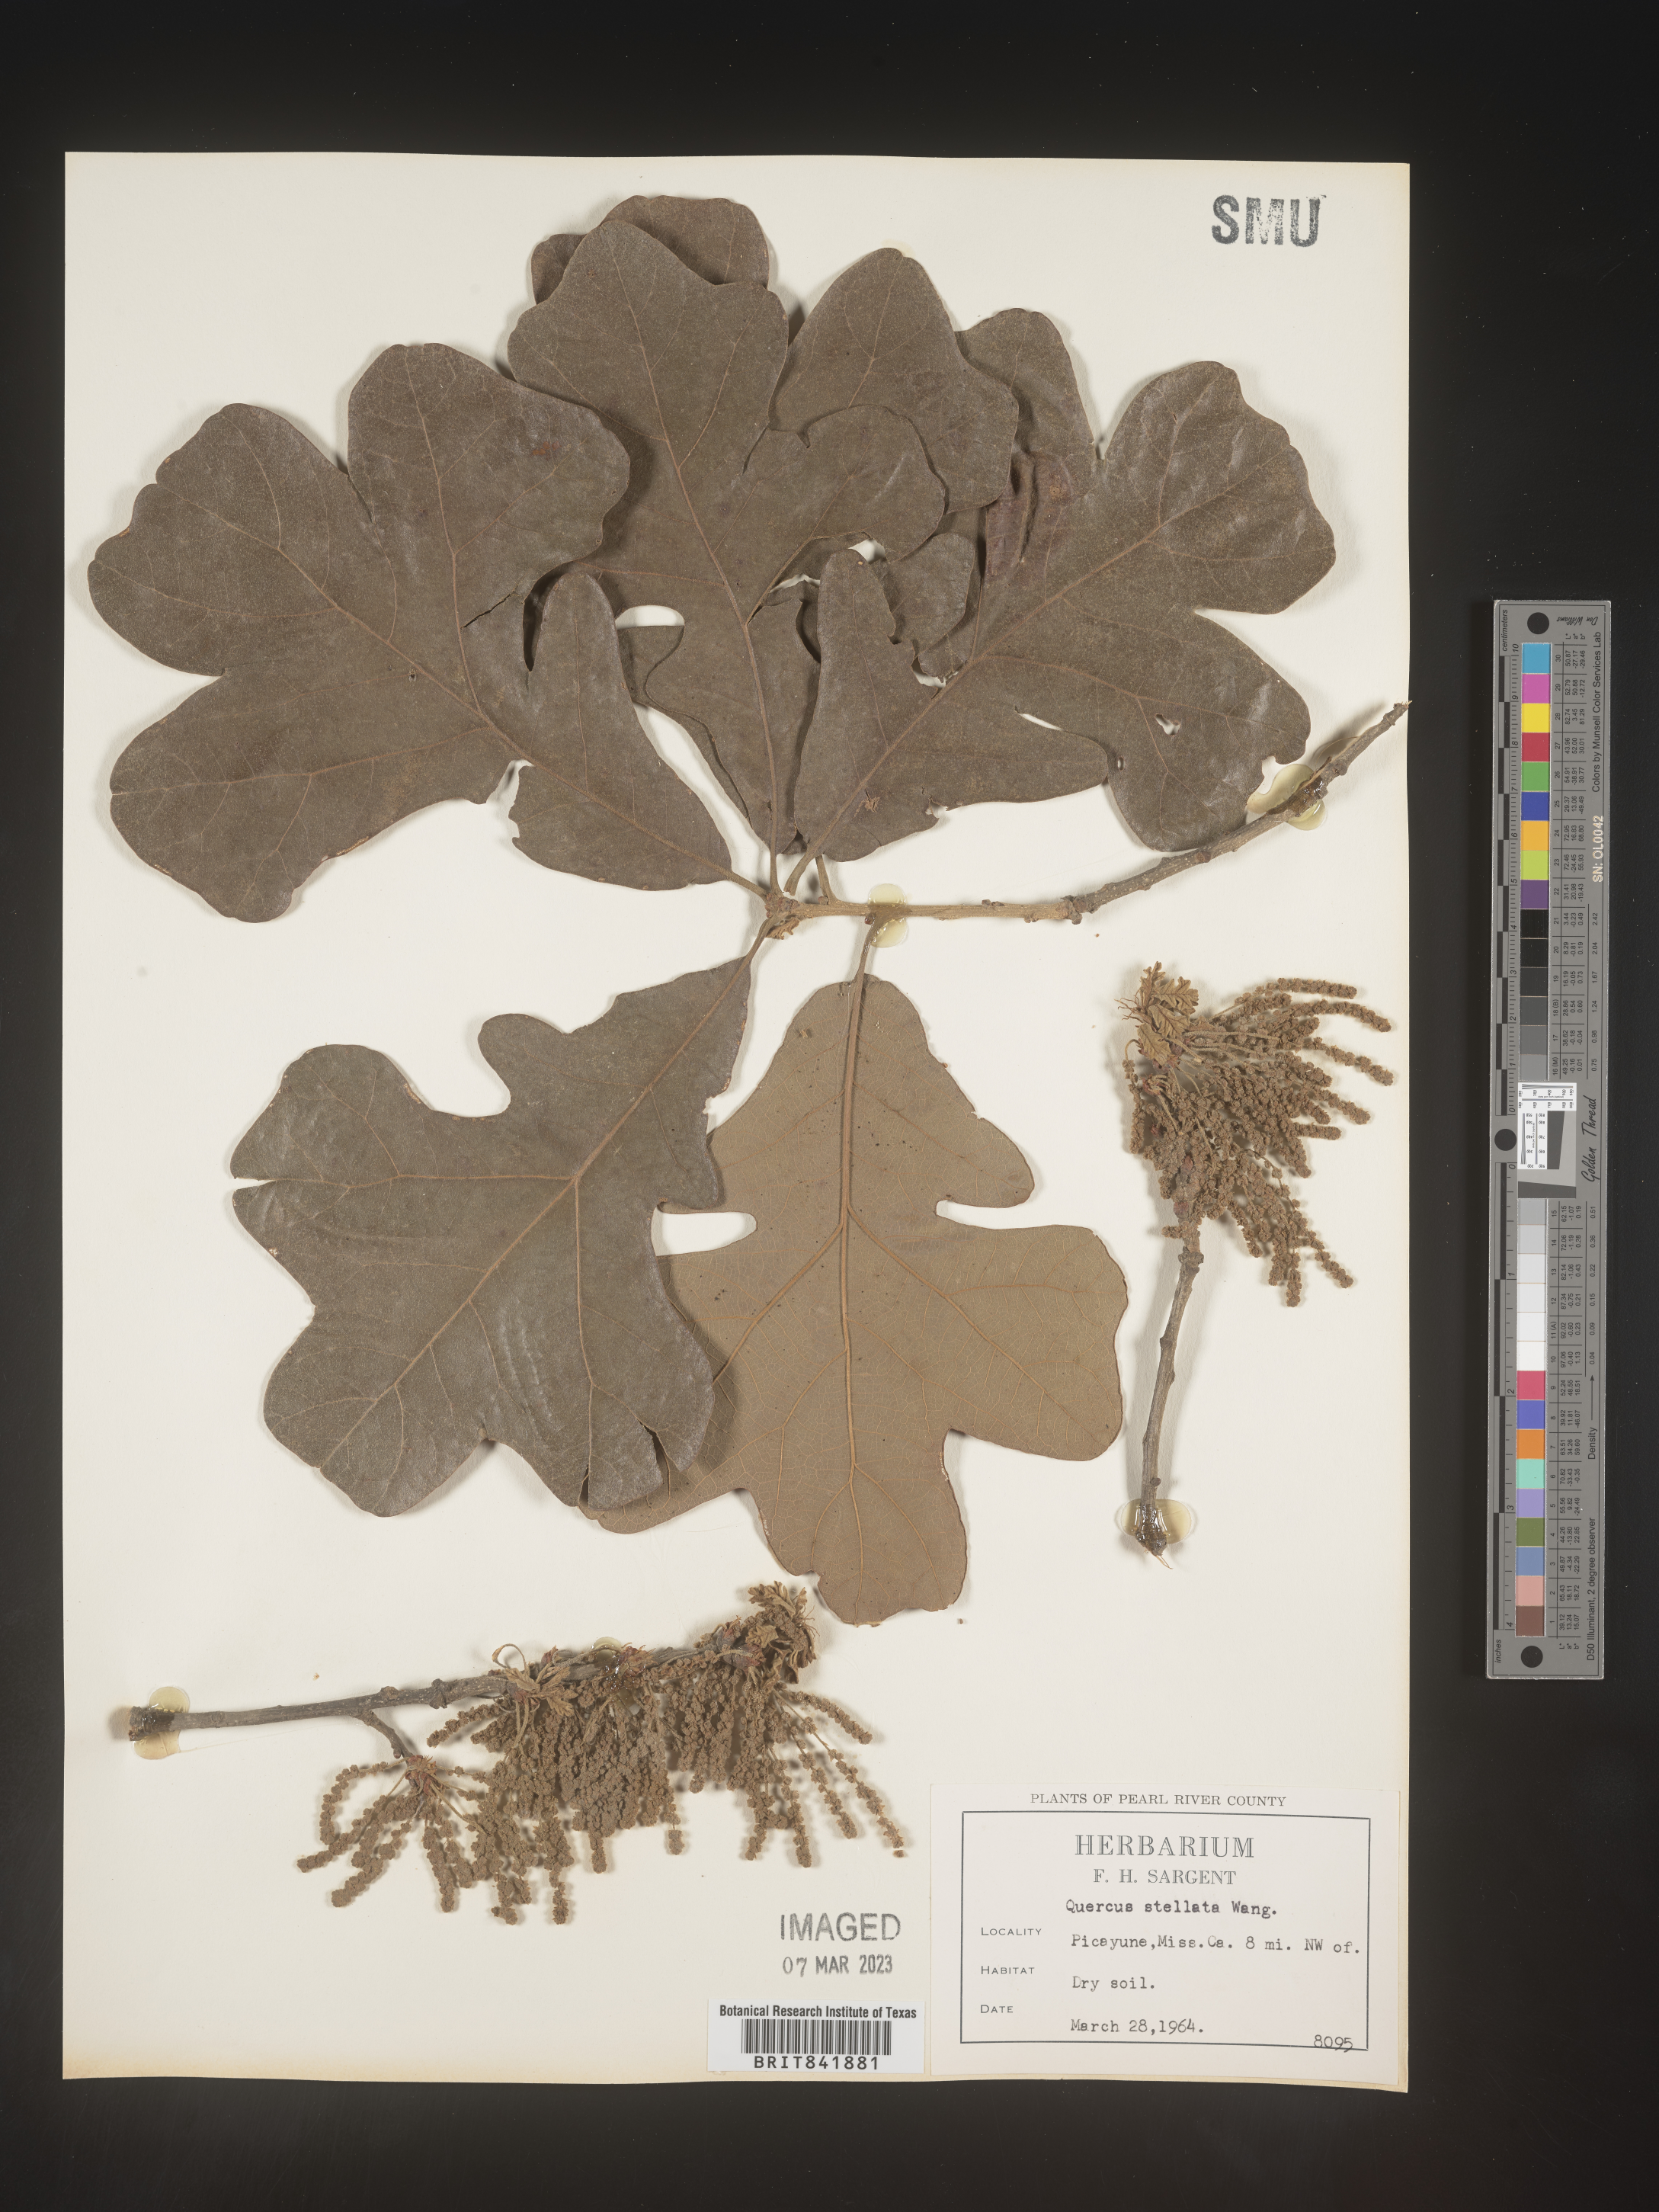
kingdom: Plantae
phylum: Tracheophyta
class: Magnoliopsida
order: Fagales
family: Fagaceae
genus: Quercus
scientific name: Quercus stellata
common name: Post oak
